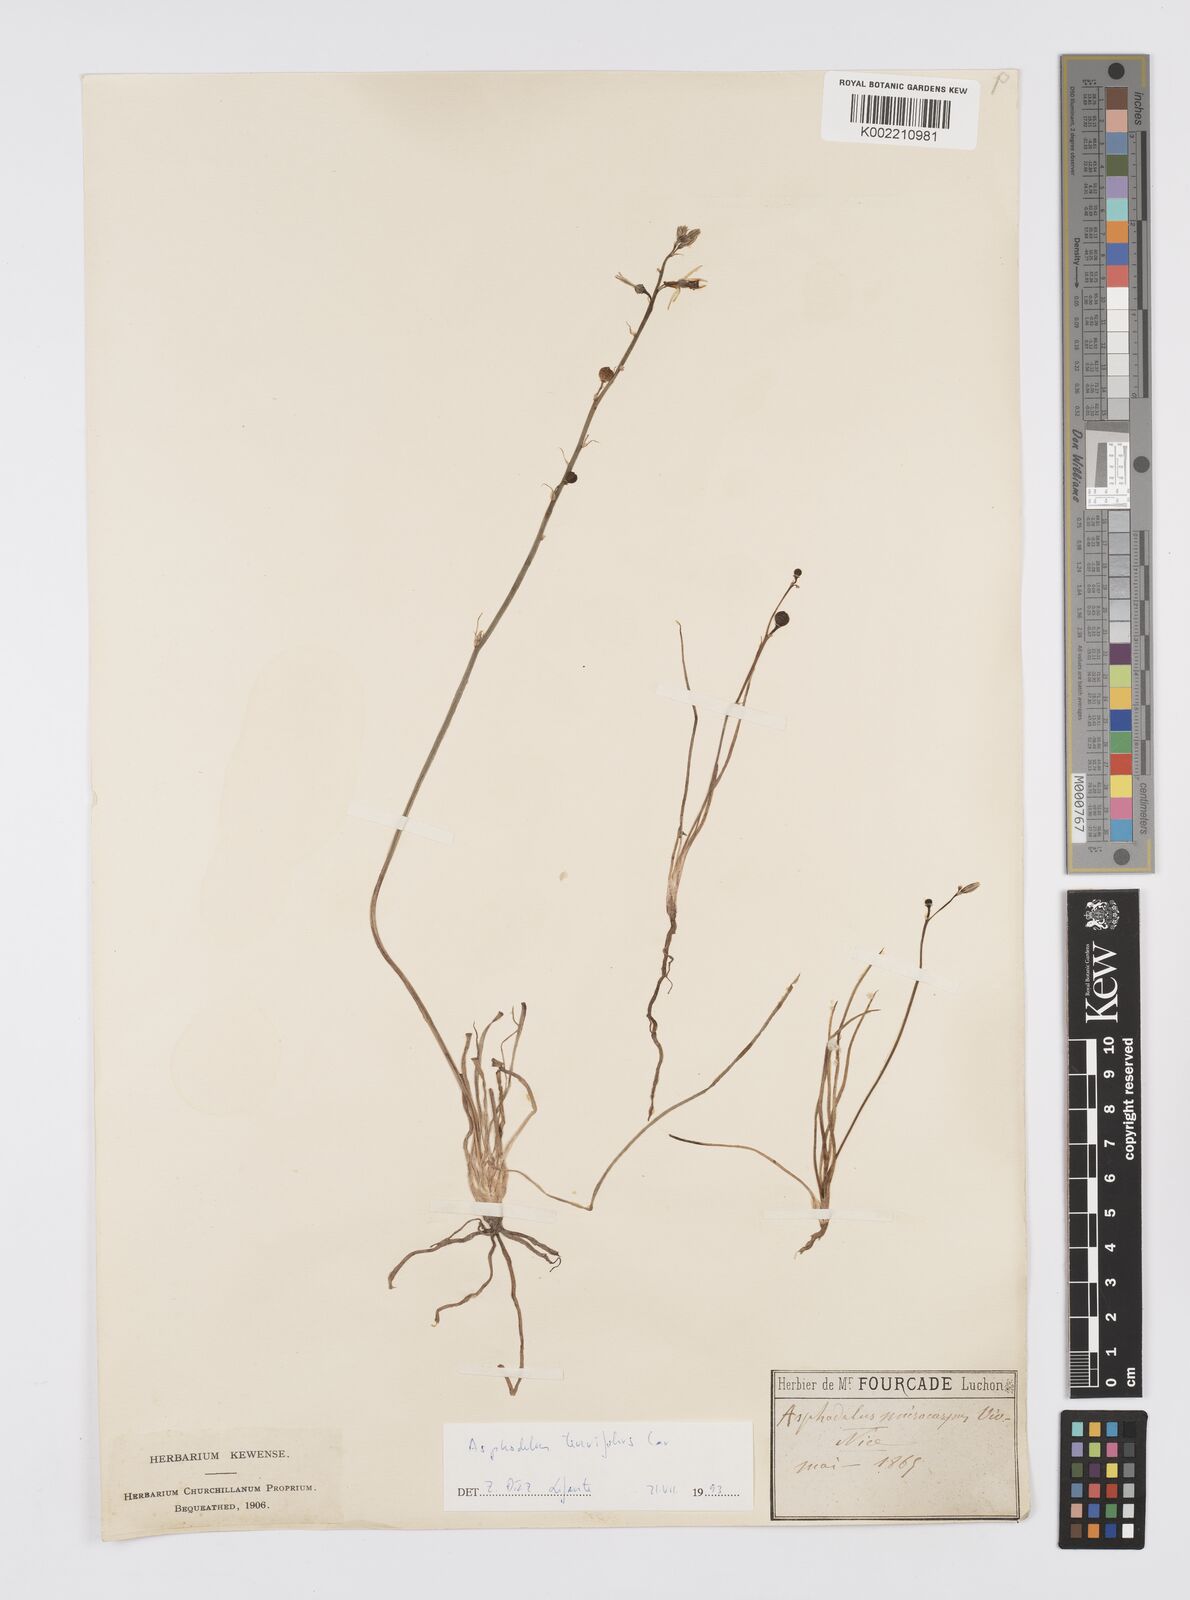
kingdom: Plantae
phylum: Tracheophyta
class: Liliopsida
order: Asparagales
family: Asphodelaceae
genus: Asphodelus
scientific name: Asphodelus fistulosus
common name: Onionweed
